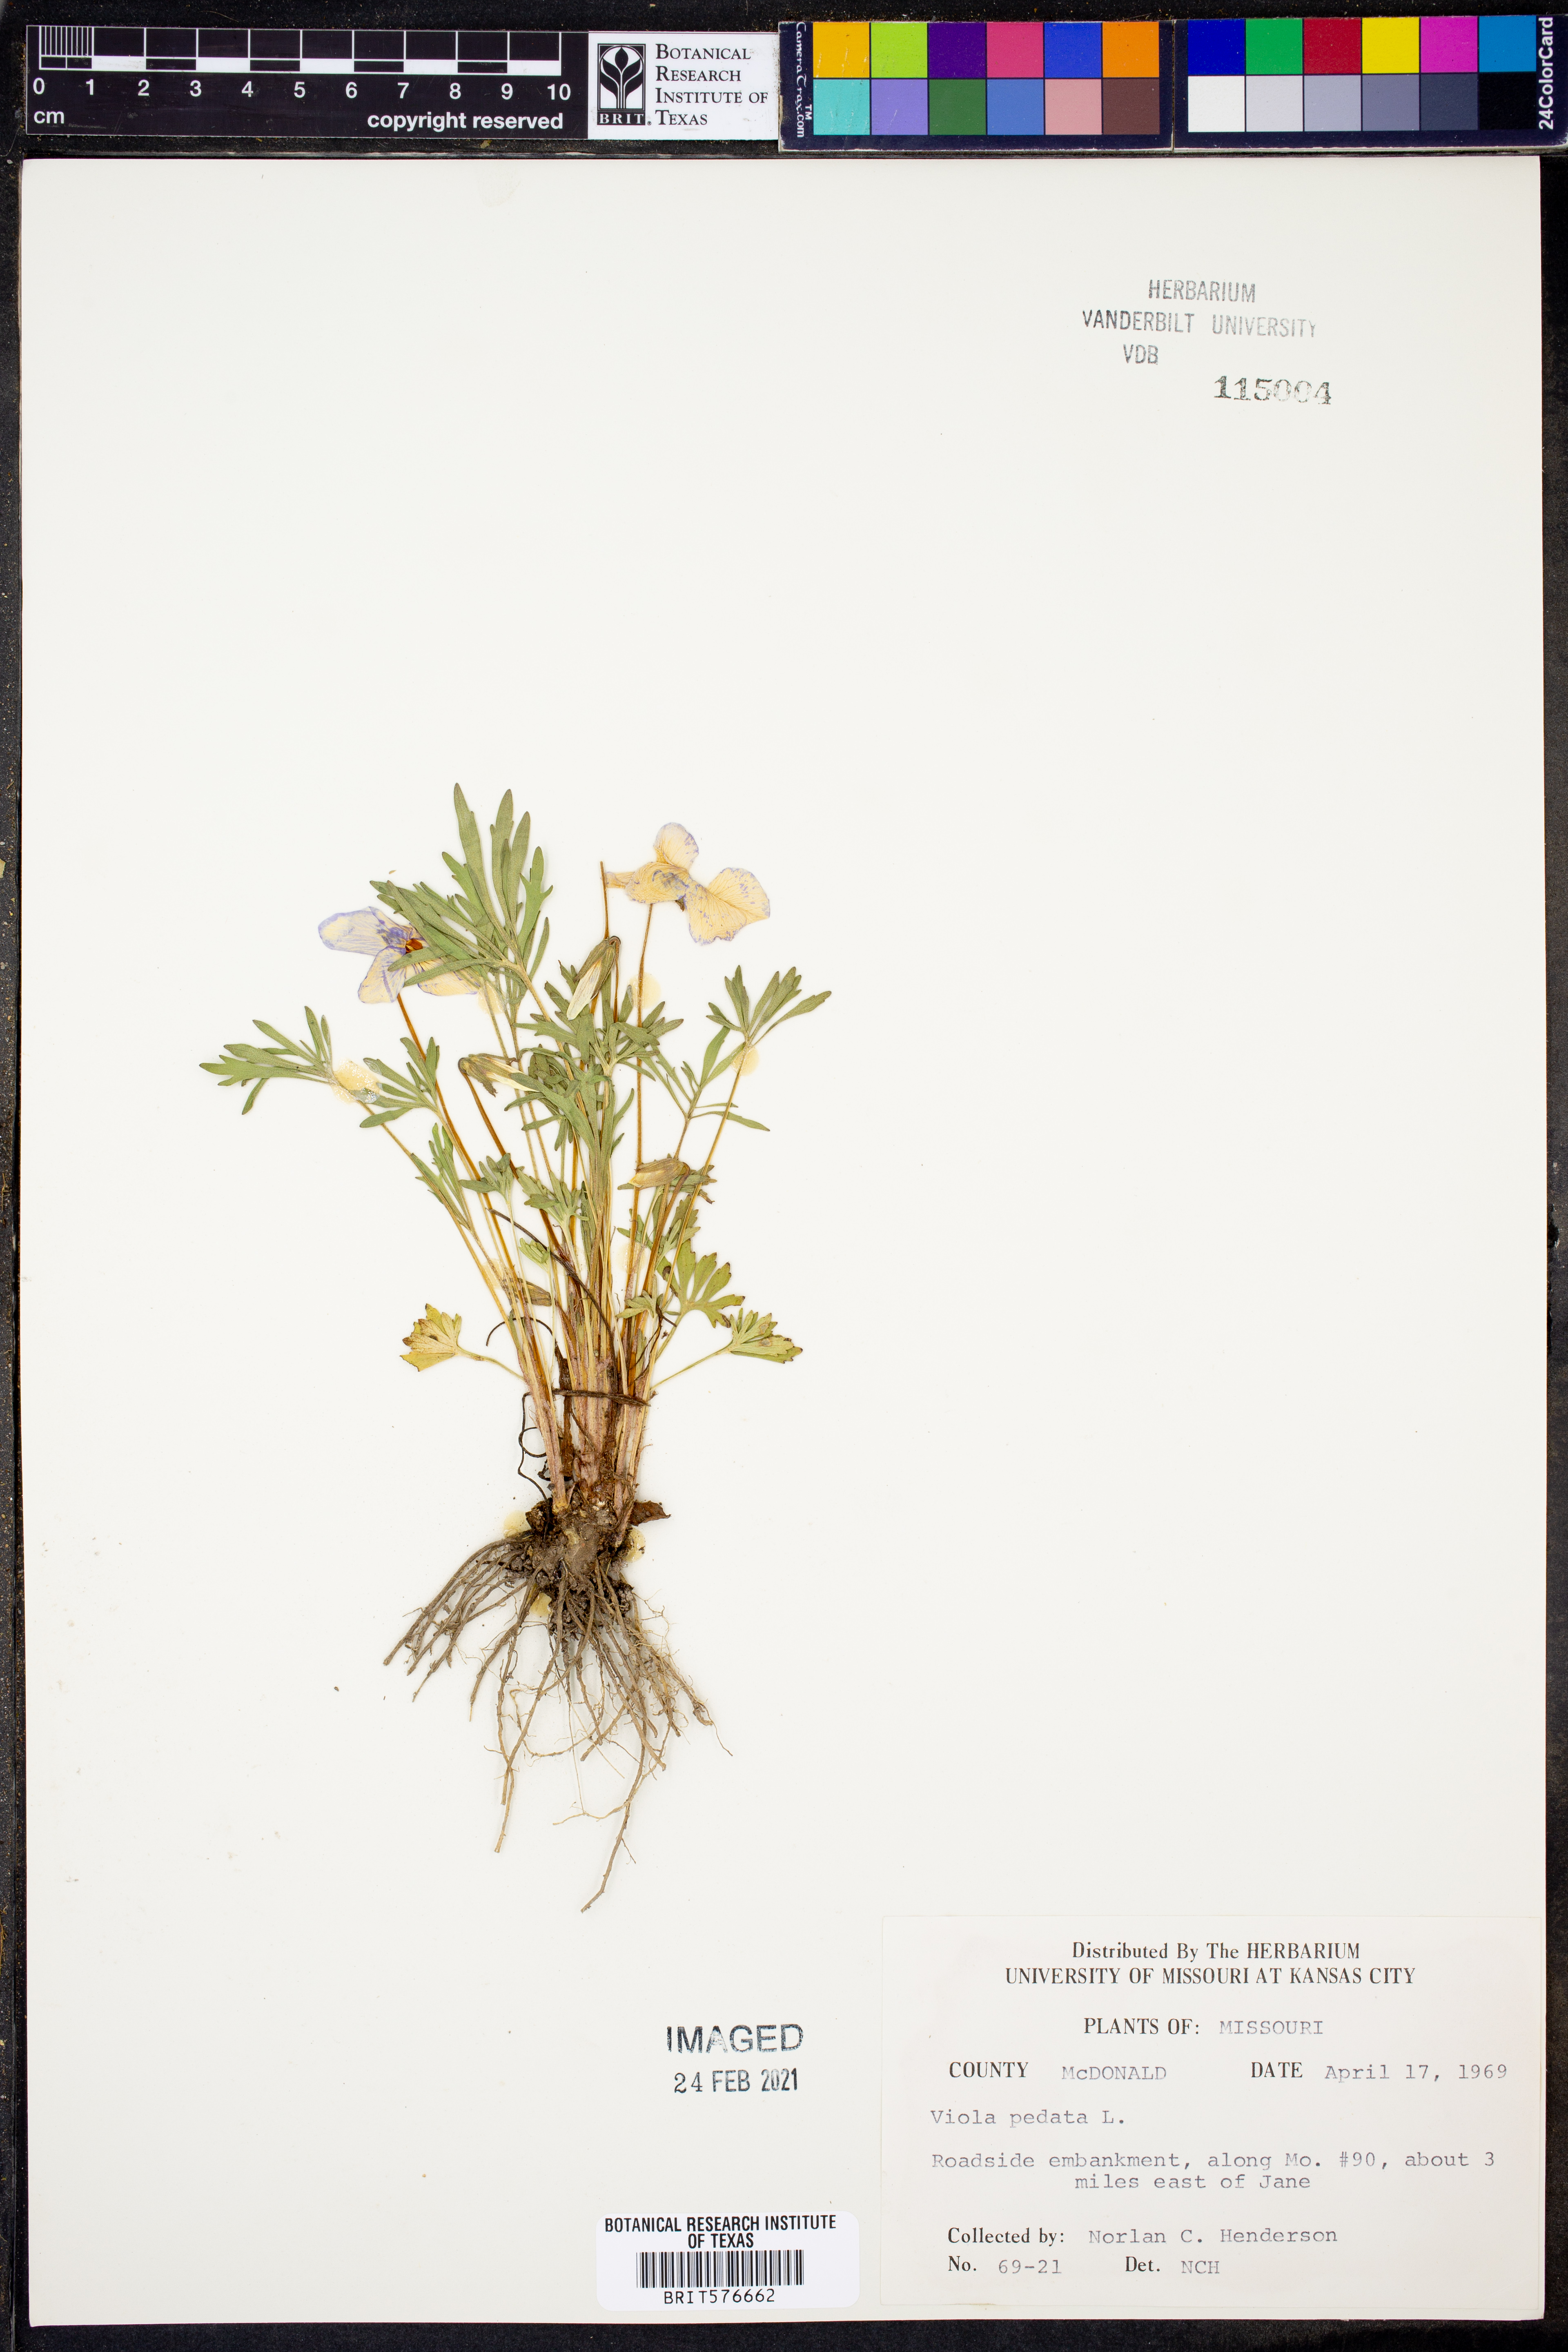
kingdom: Plantae
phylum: Tracheophyta
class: Magnoliopsida
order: Malpighiales
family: Violaceae
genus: Viola
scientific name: Viola pedata
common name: Pansy violet
